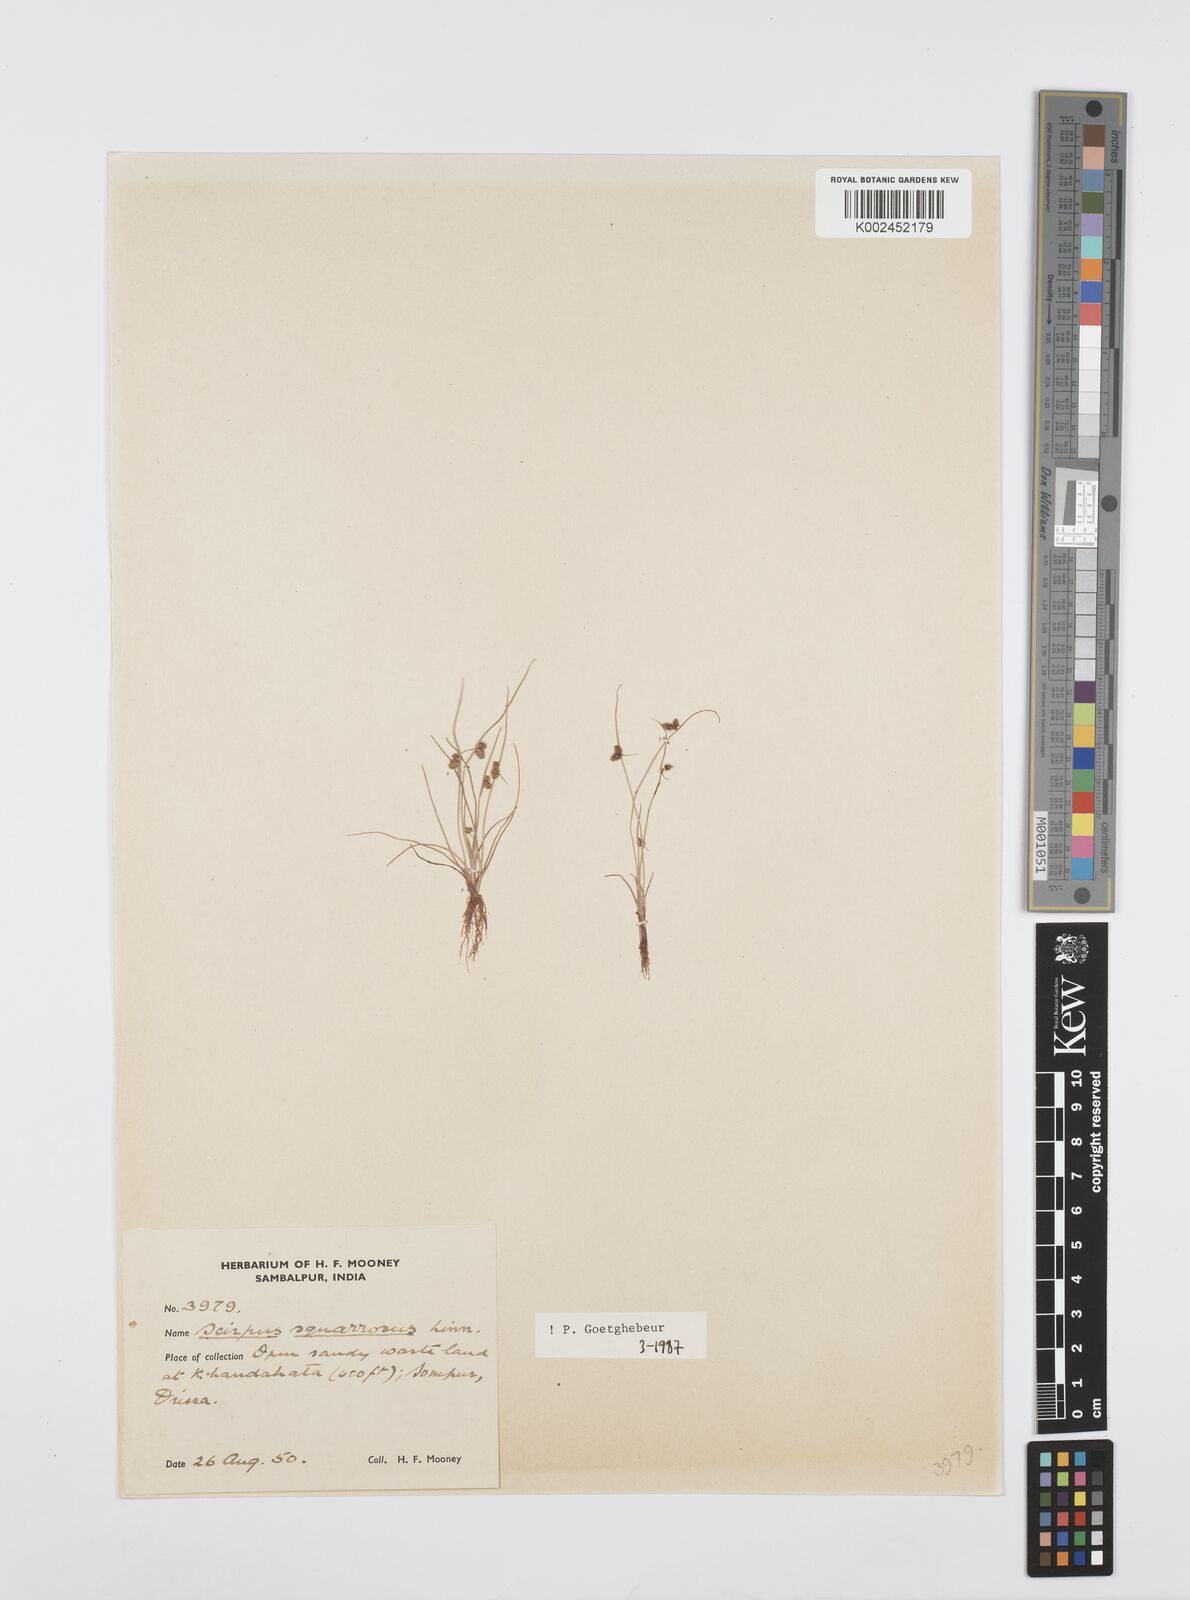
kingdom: Plantae
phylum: Tracheophyta
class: Liliopsida
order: Poales
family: Cyperaceae
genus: Cyperus
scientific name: Cyperus squarrosus
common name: Awned cyperus
